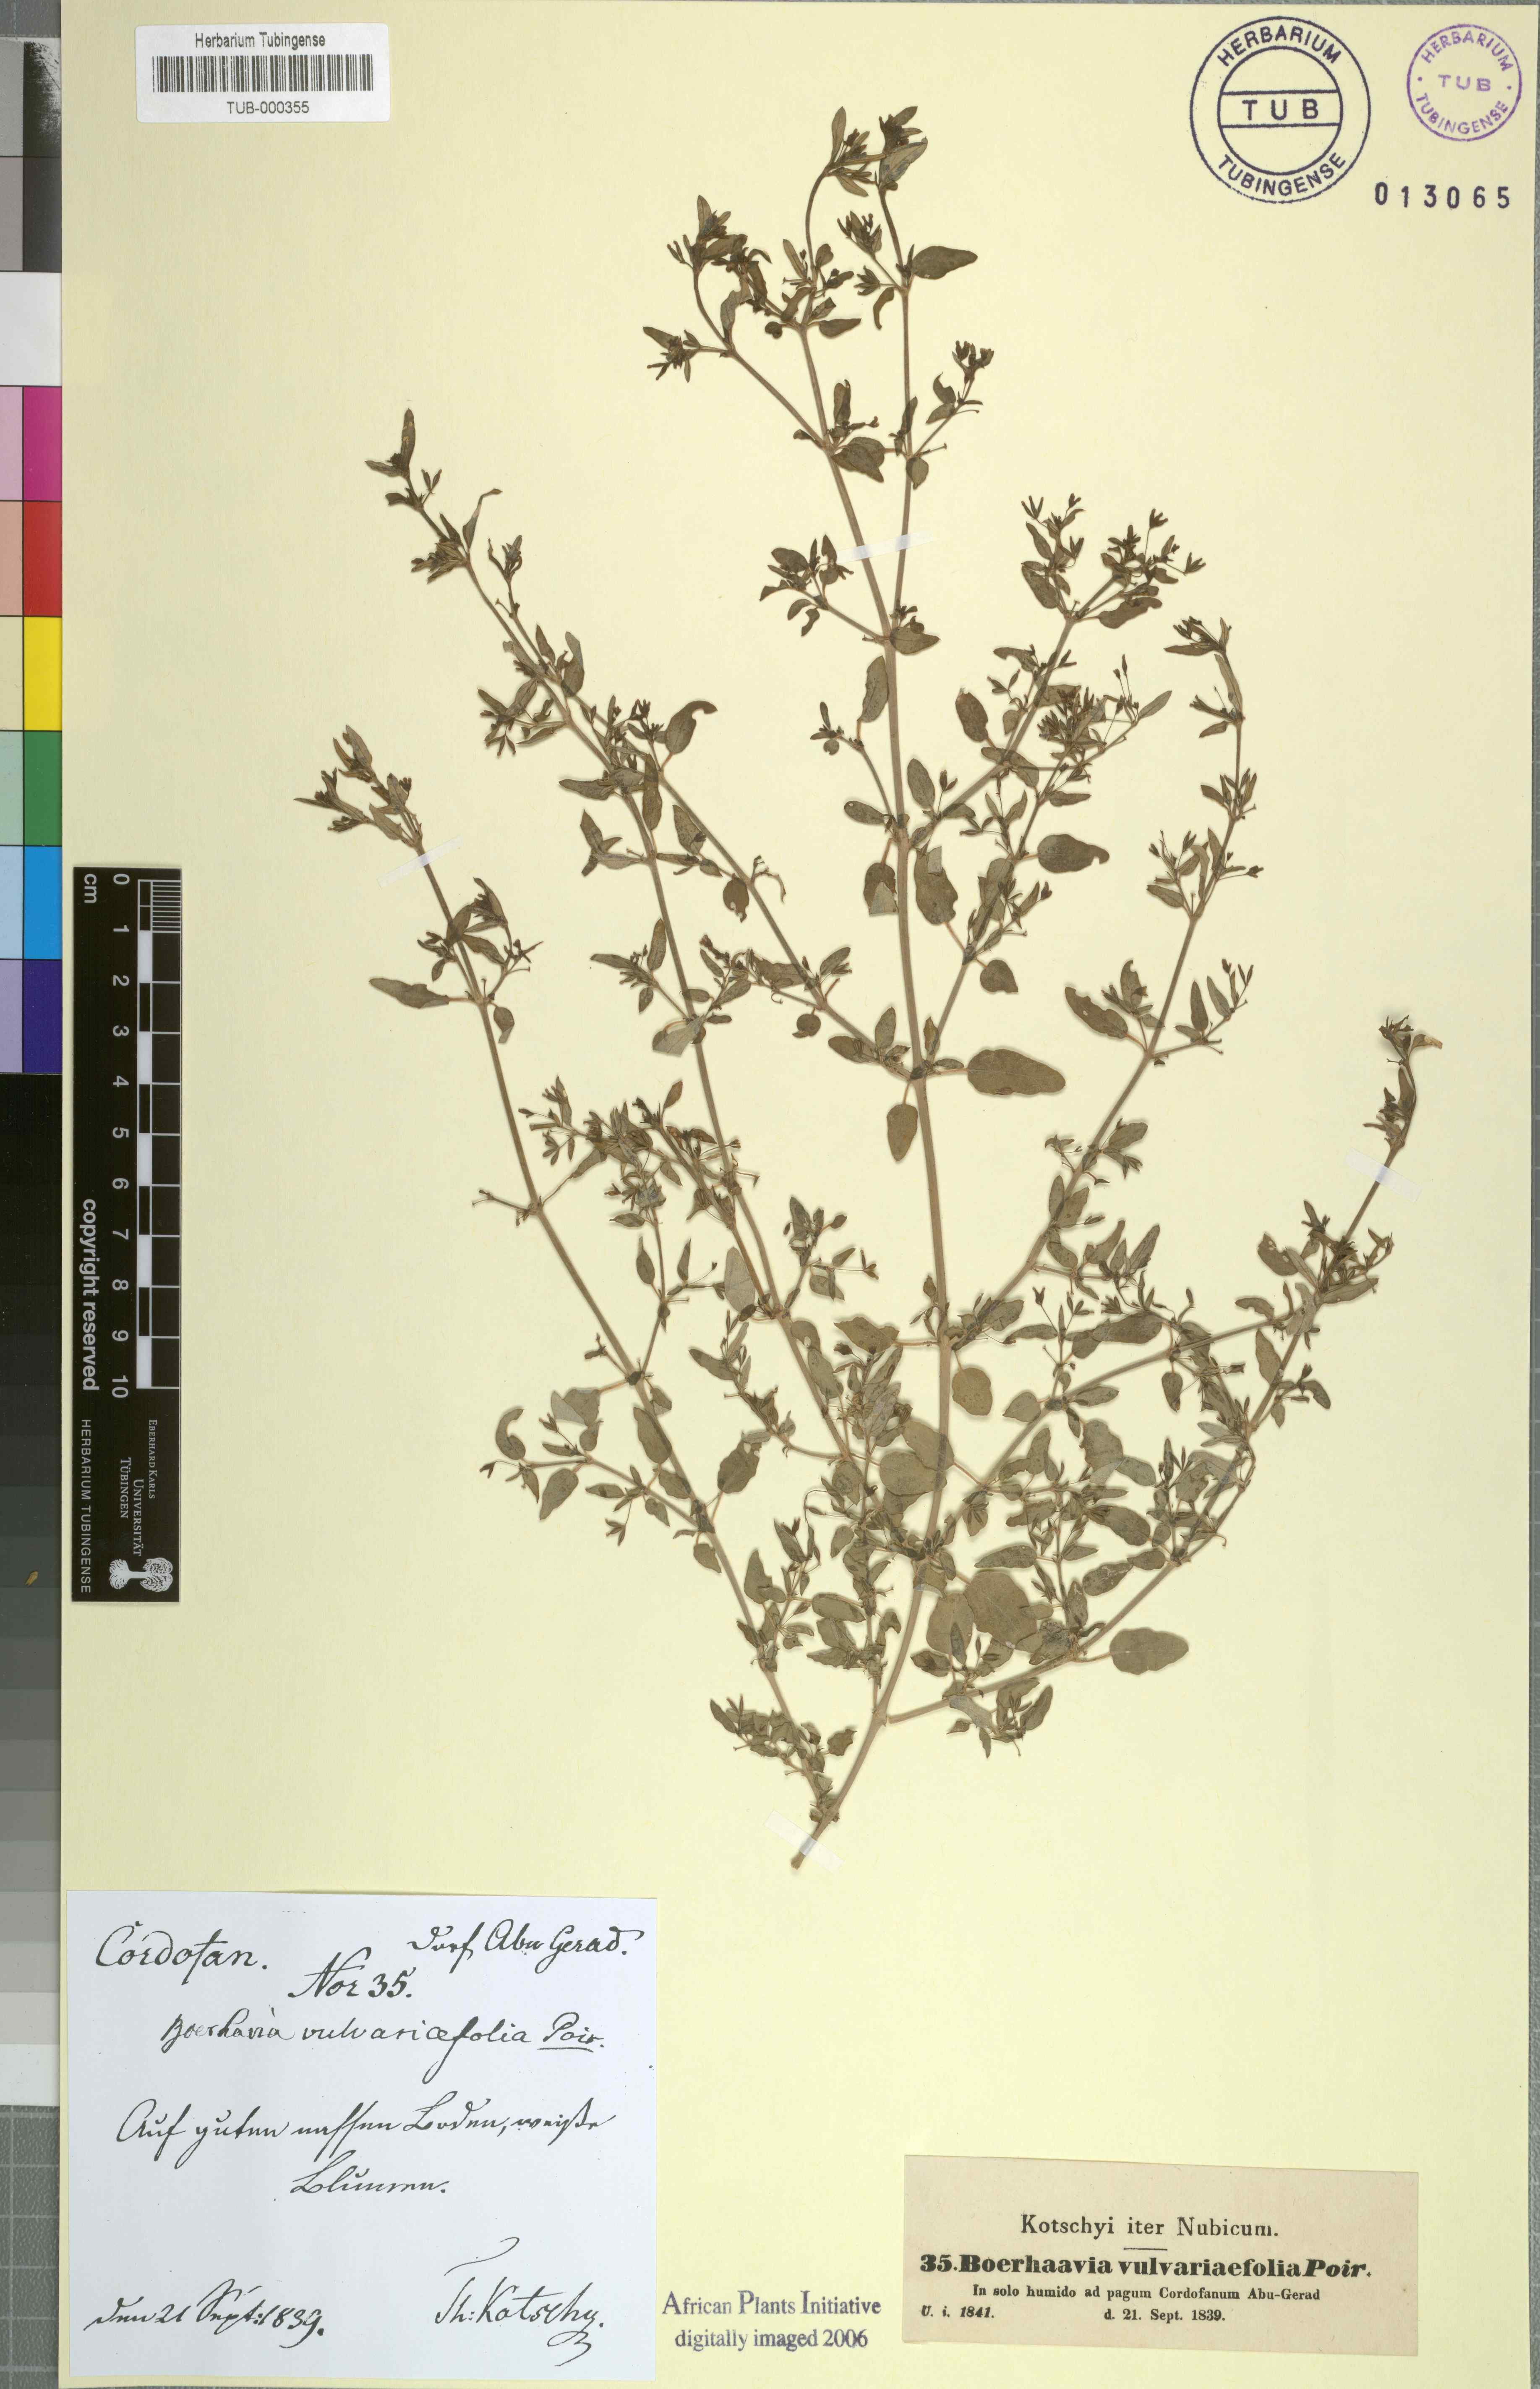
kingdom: Plantae
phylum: Tracheophyta
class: Magnoliopsida
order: Caryophyllales
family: Nyctaginaceae
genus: Boerhavia
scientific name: Boerhavia repens
